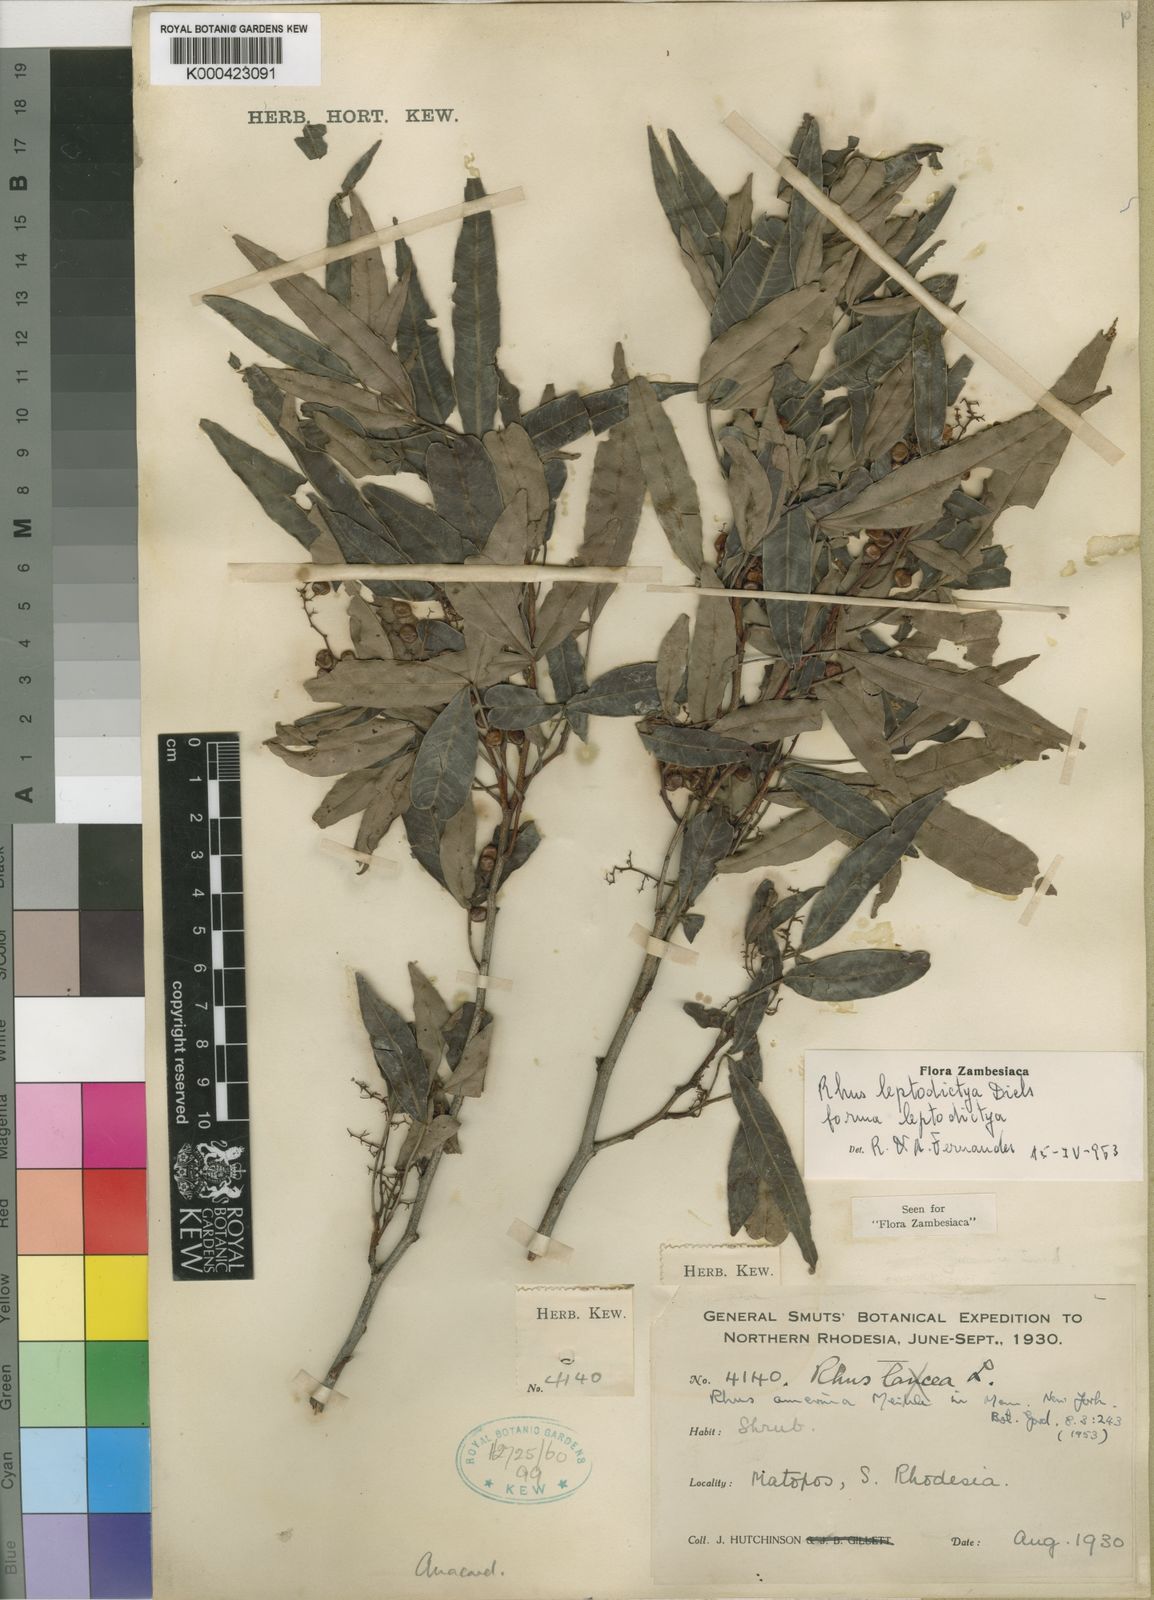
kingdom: Plantae
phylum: Tracheophyta
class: Magnoliopsida
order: Sapindales
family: Anacardiaceae
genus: Searsia
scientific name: Searsia leptodictya
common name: Mountain karee
